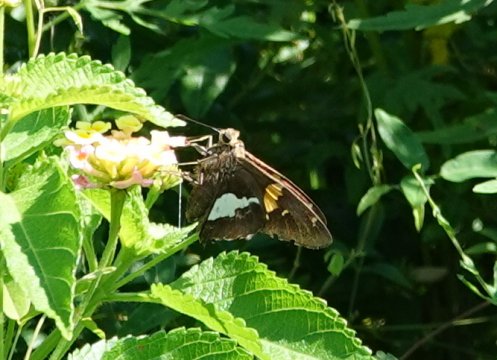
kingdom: Animalia
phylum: Arthropoda
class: Insecta
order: Lepidoptera
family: Hesperiidae
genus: Epargyreus
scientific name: Epargyreus clarus
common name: Silver-spotted Skipper
